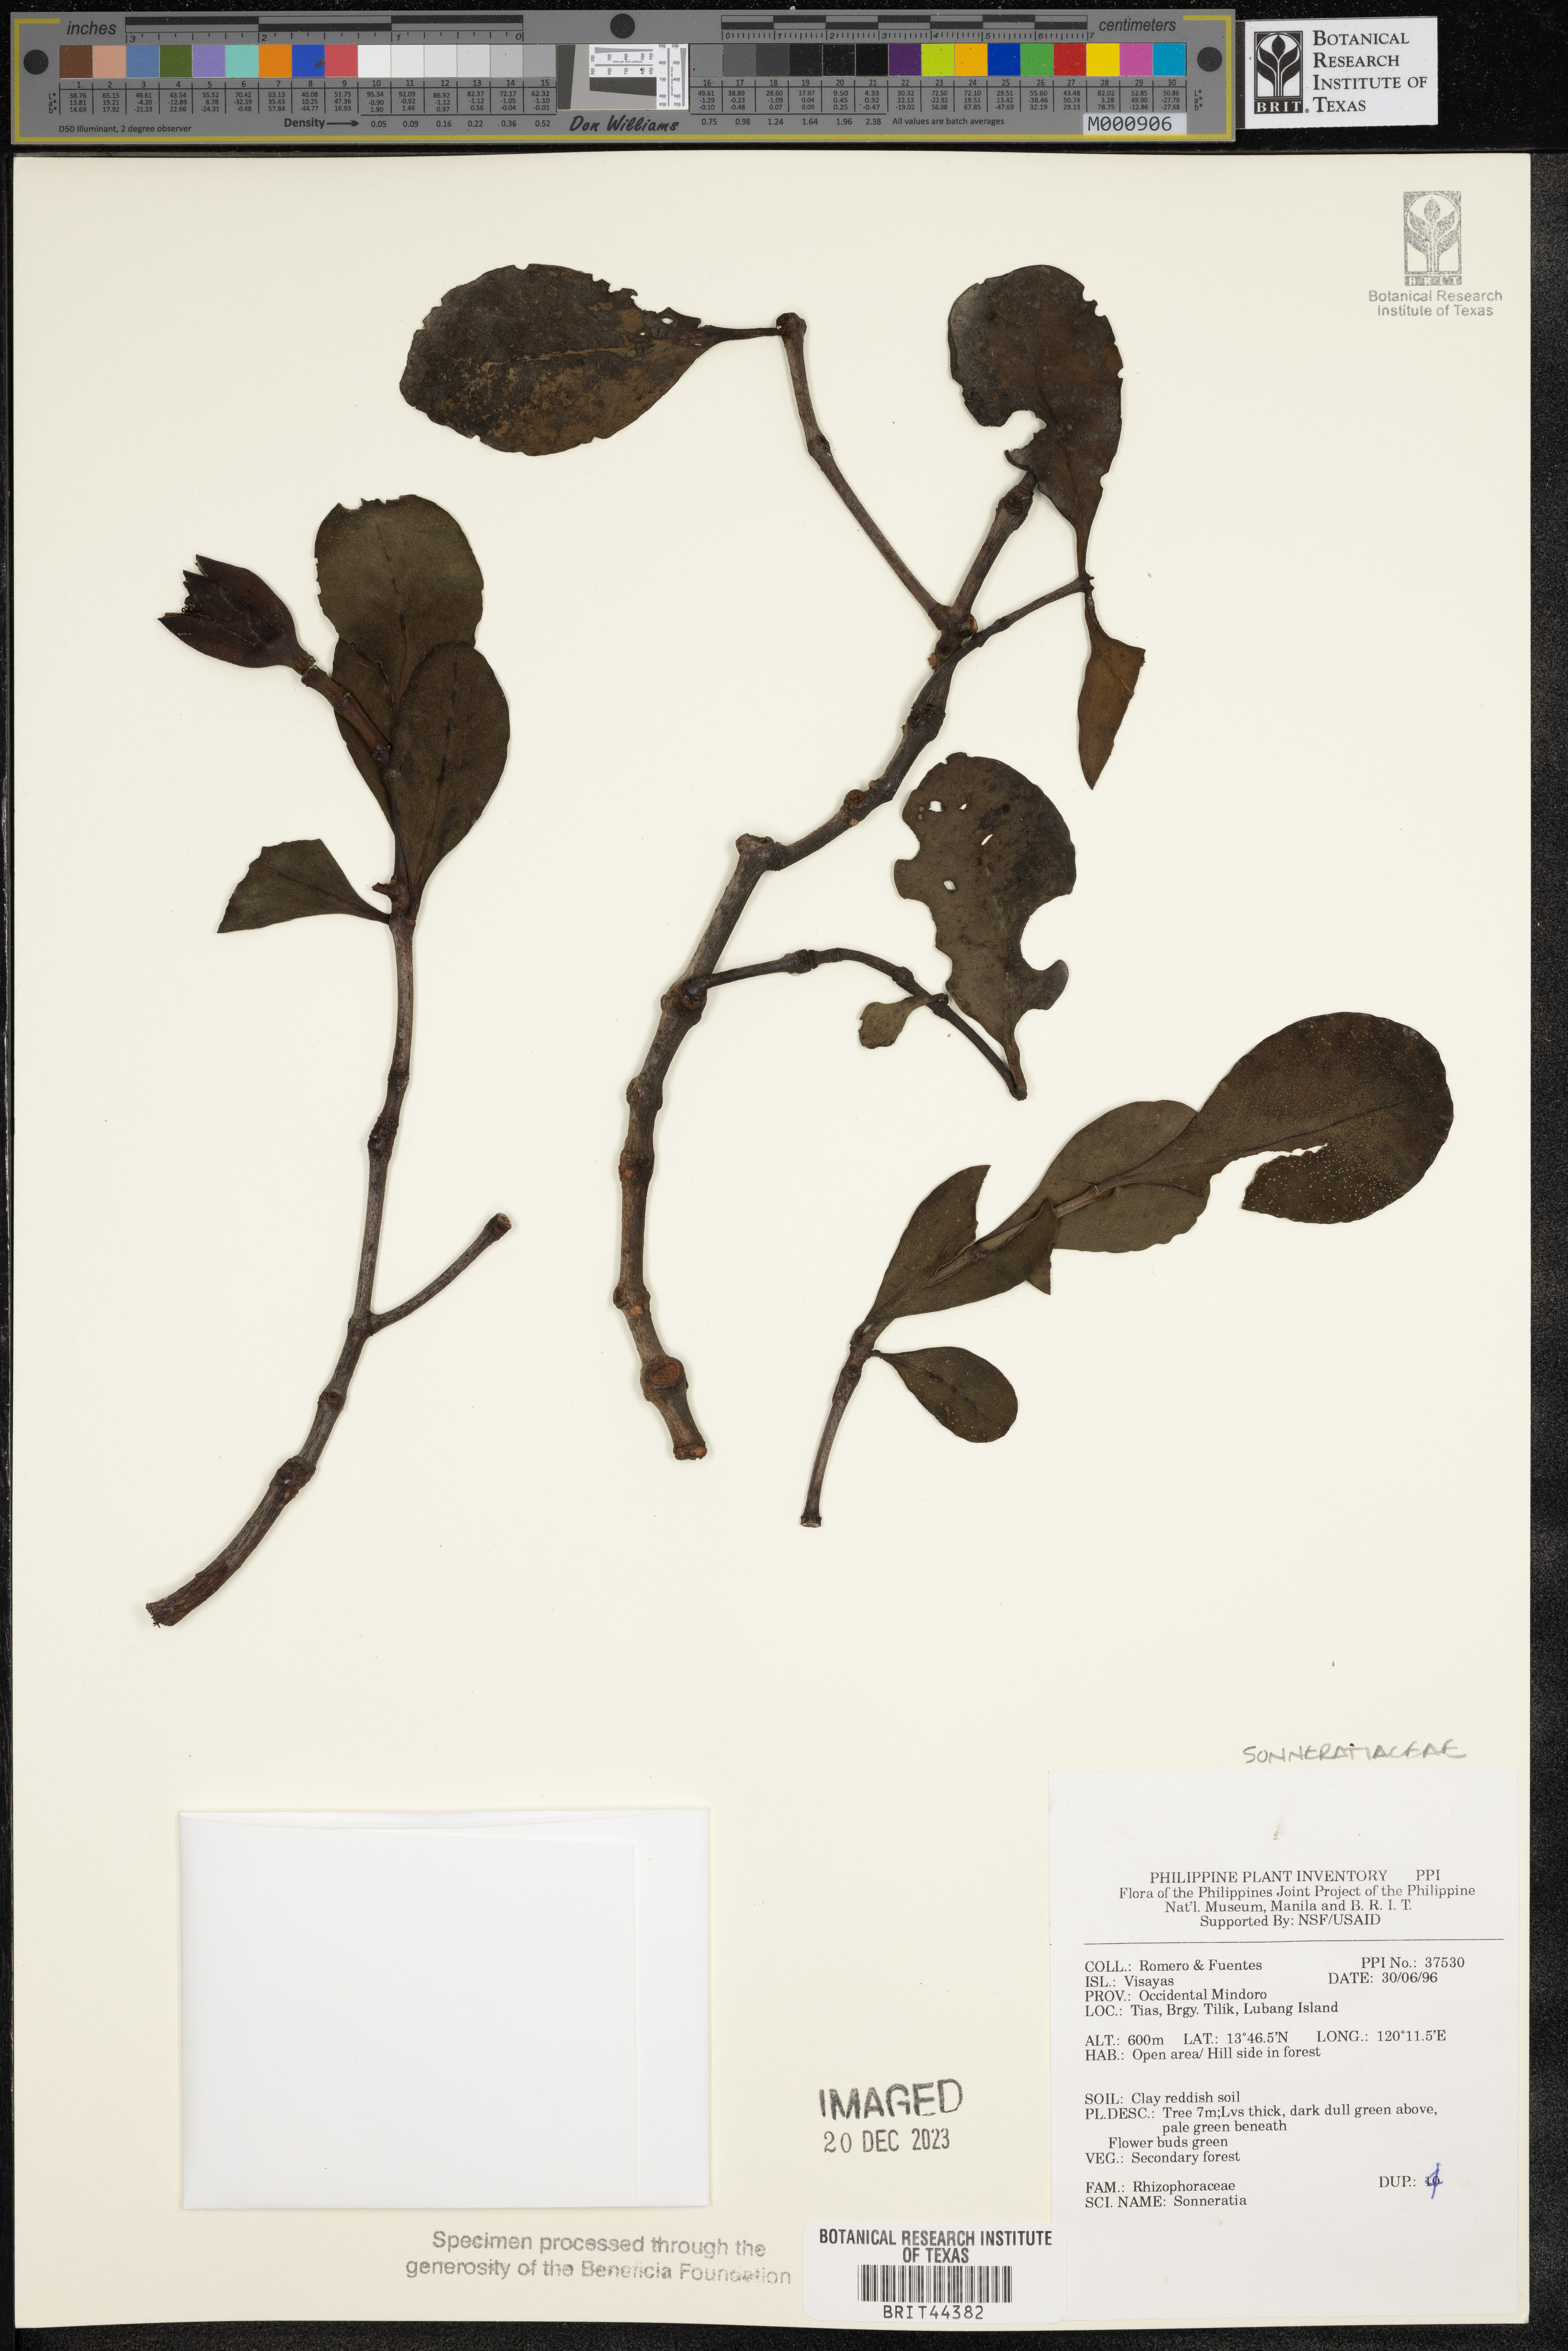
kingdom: Plantae
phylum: Tracheophyta
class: Magnoliopsida
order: Myrtales
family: Lythraceae
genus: Sonneratia
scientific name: Sonneratia
